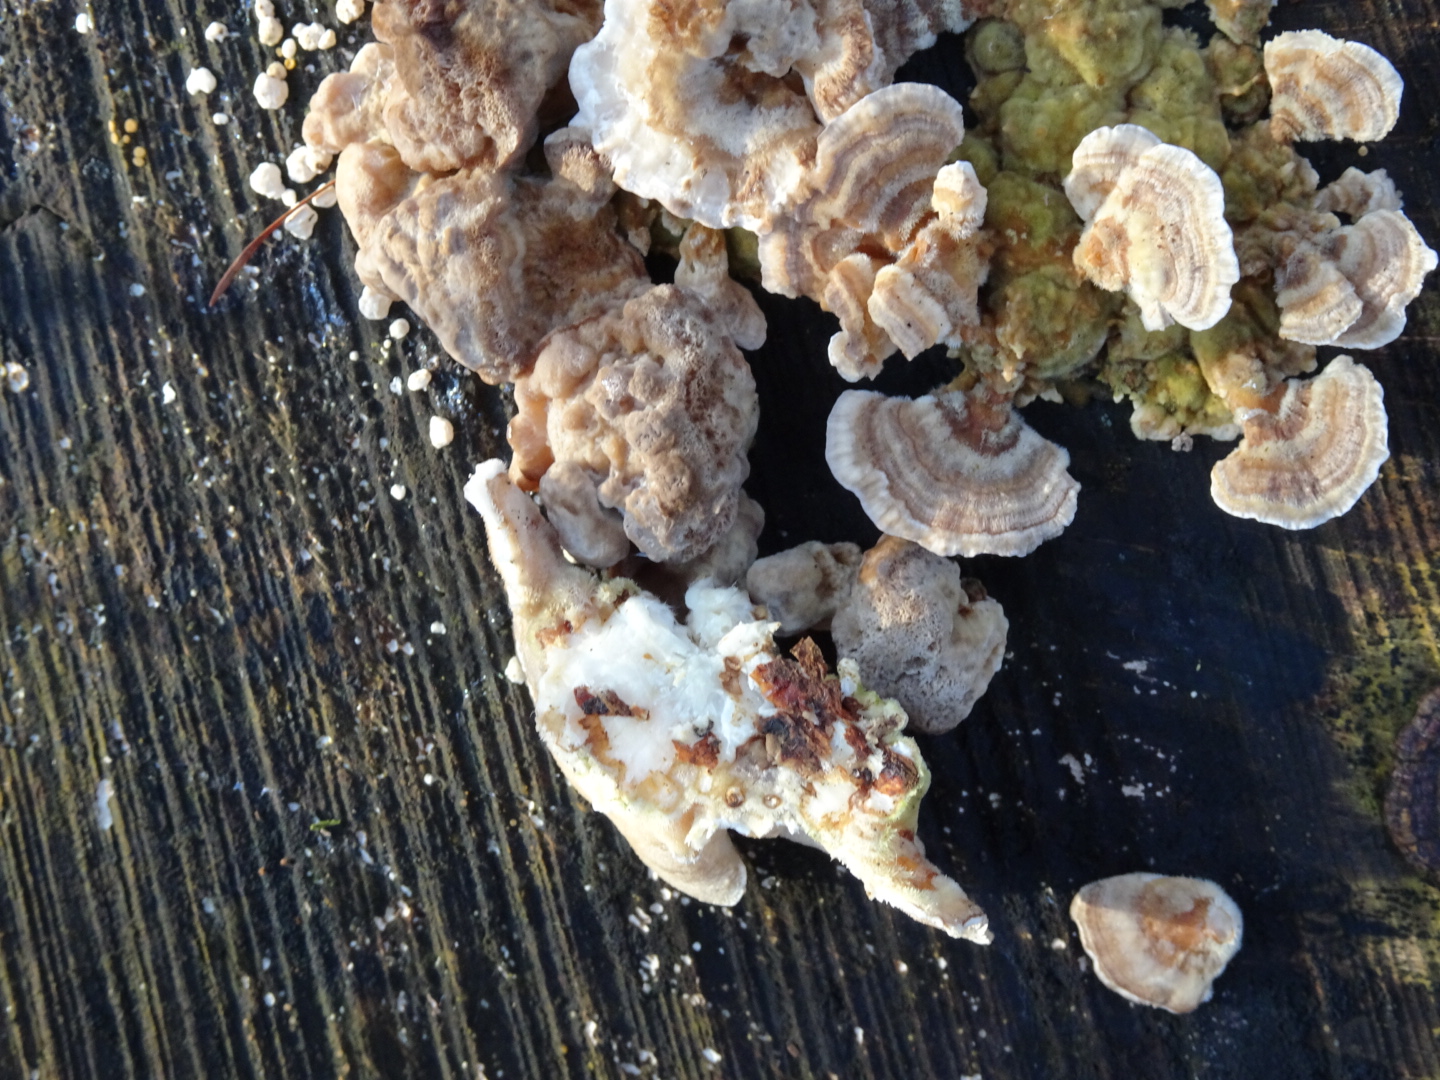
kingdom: Fungi
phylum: Basidiomycota
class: Agaricomycetes
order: Polyporales
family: Polyporaceae
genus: Trametes
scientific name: Trametes versicolor
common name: broget læderporesvamp
